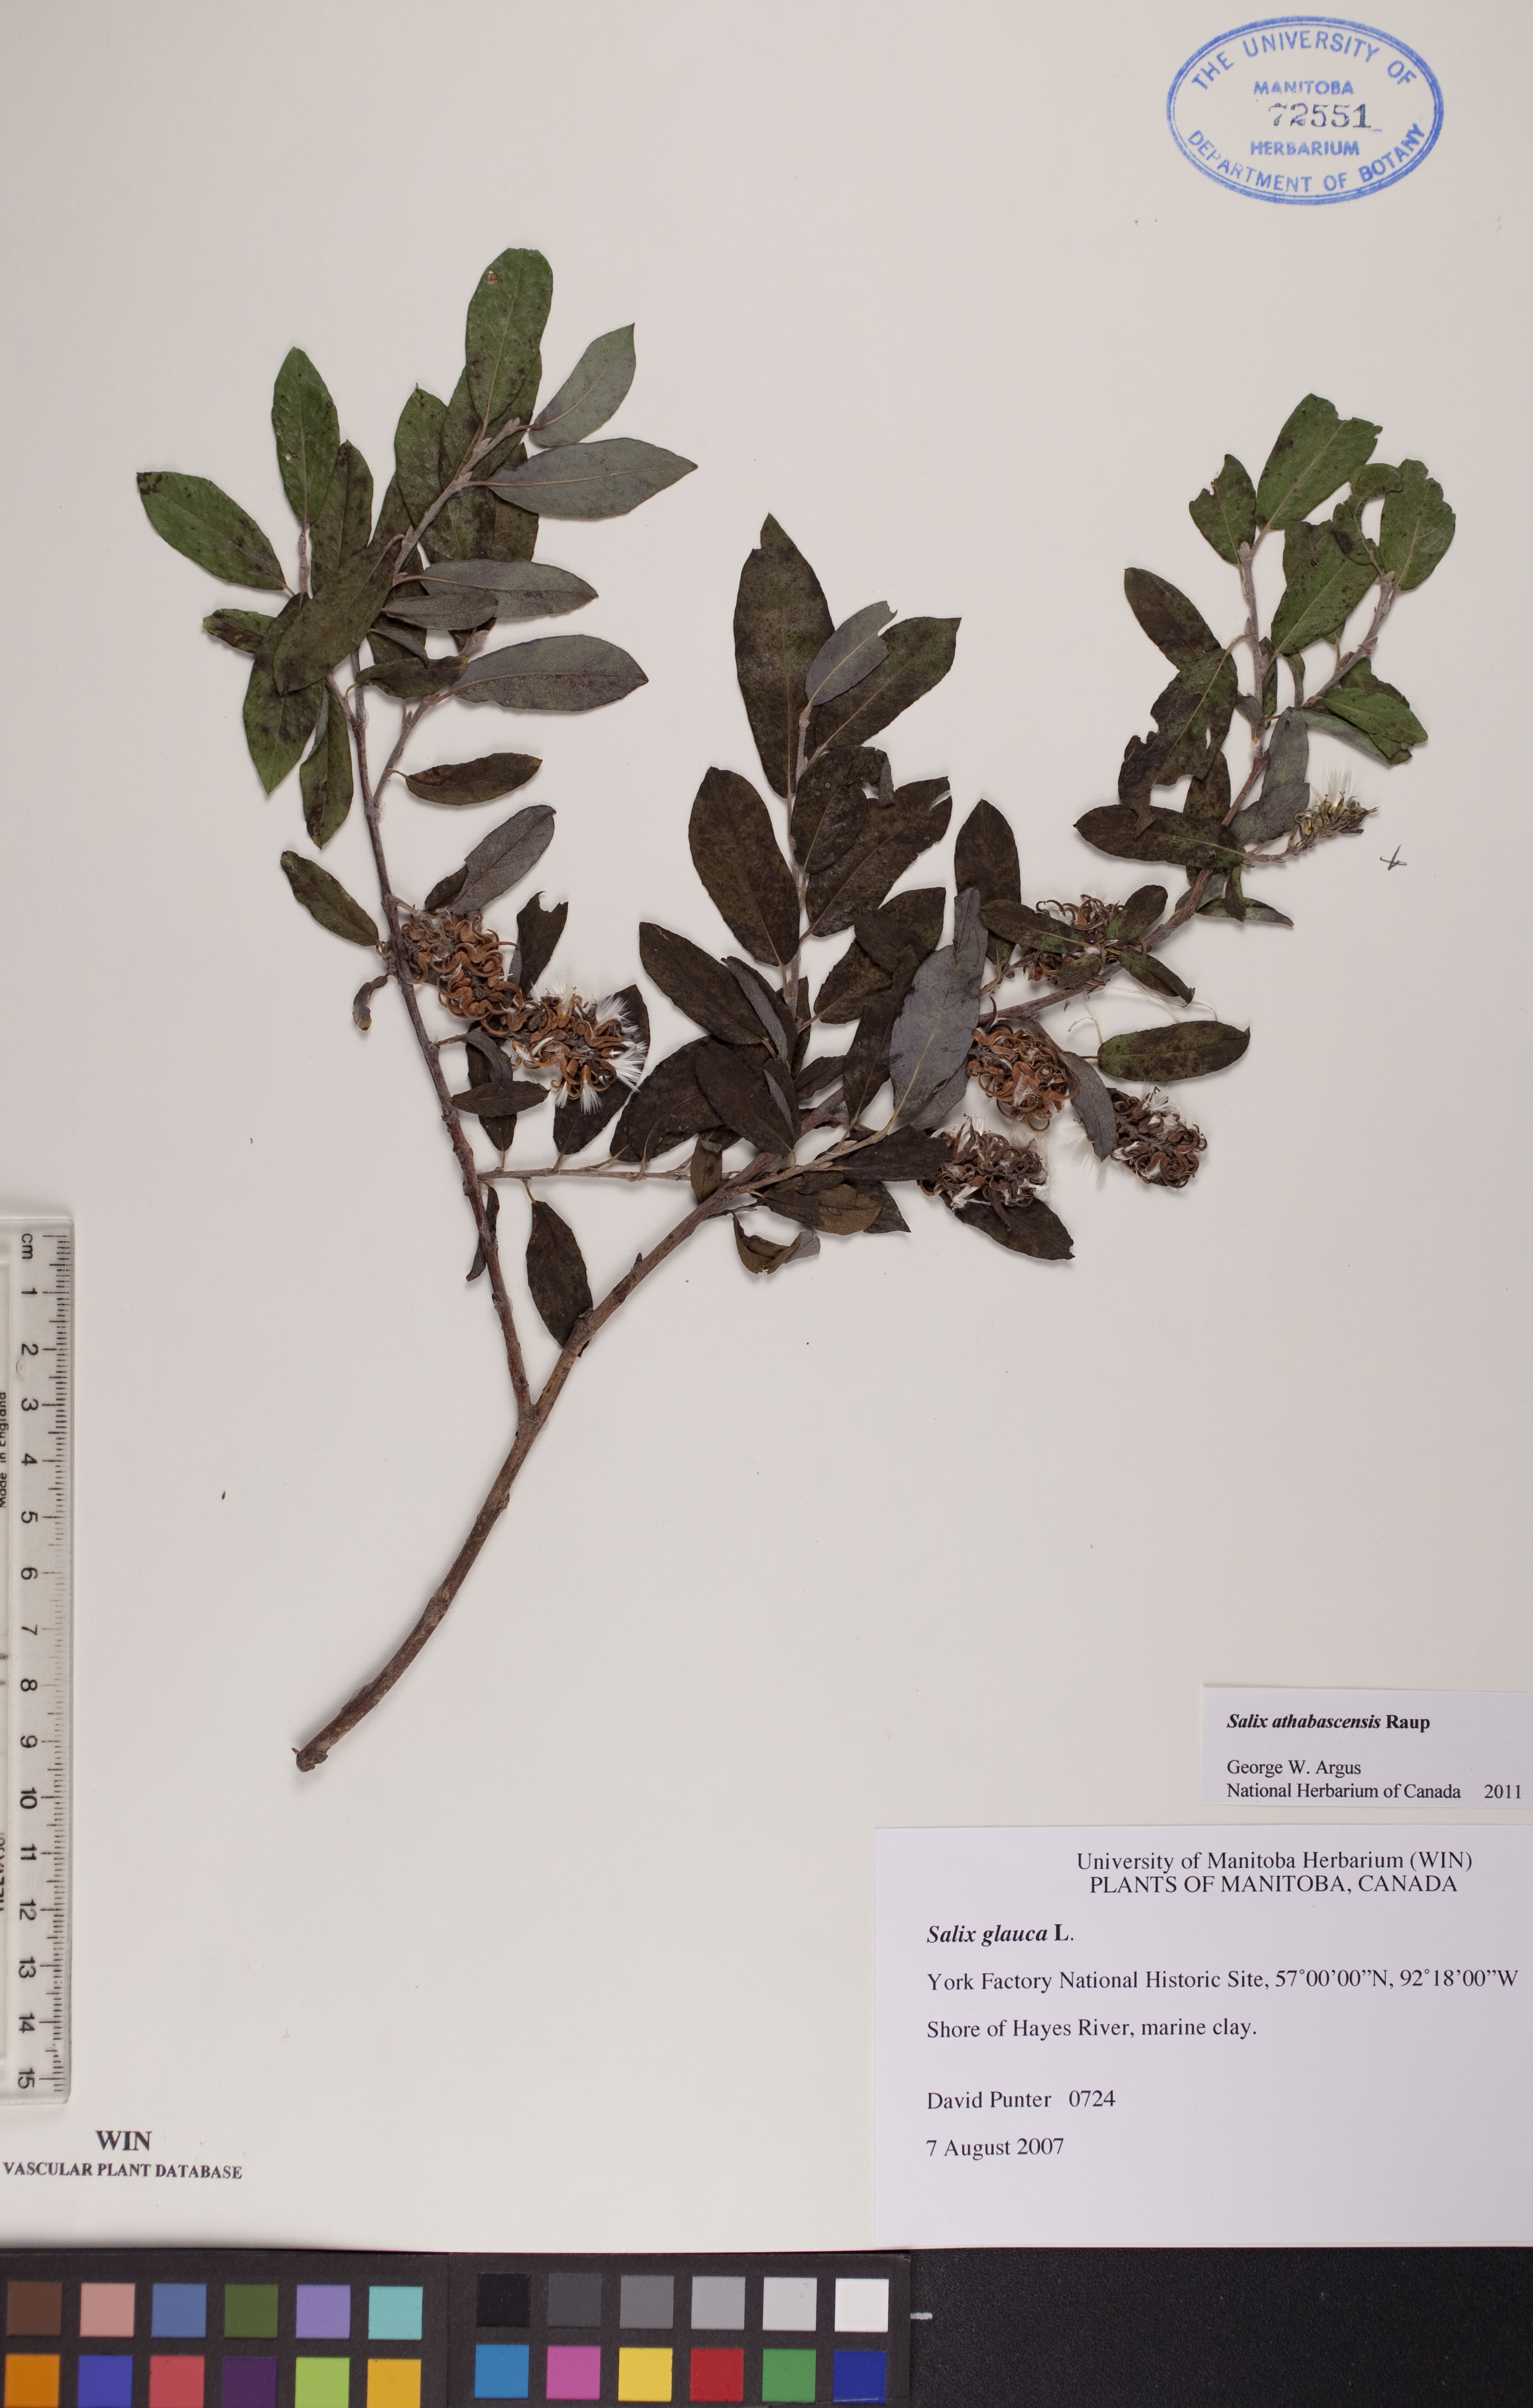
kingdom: Plantae
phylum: Tracheophyta
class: Magnoliopsida
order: Malpighiales
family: Salicaceae
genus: Salix
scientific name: Salix athabascensis
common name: Athabasca willow
